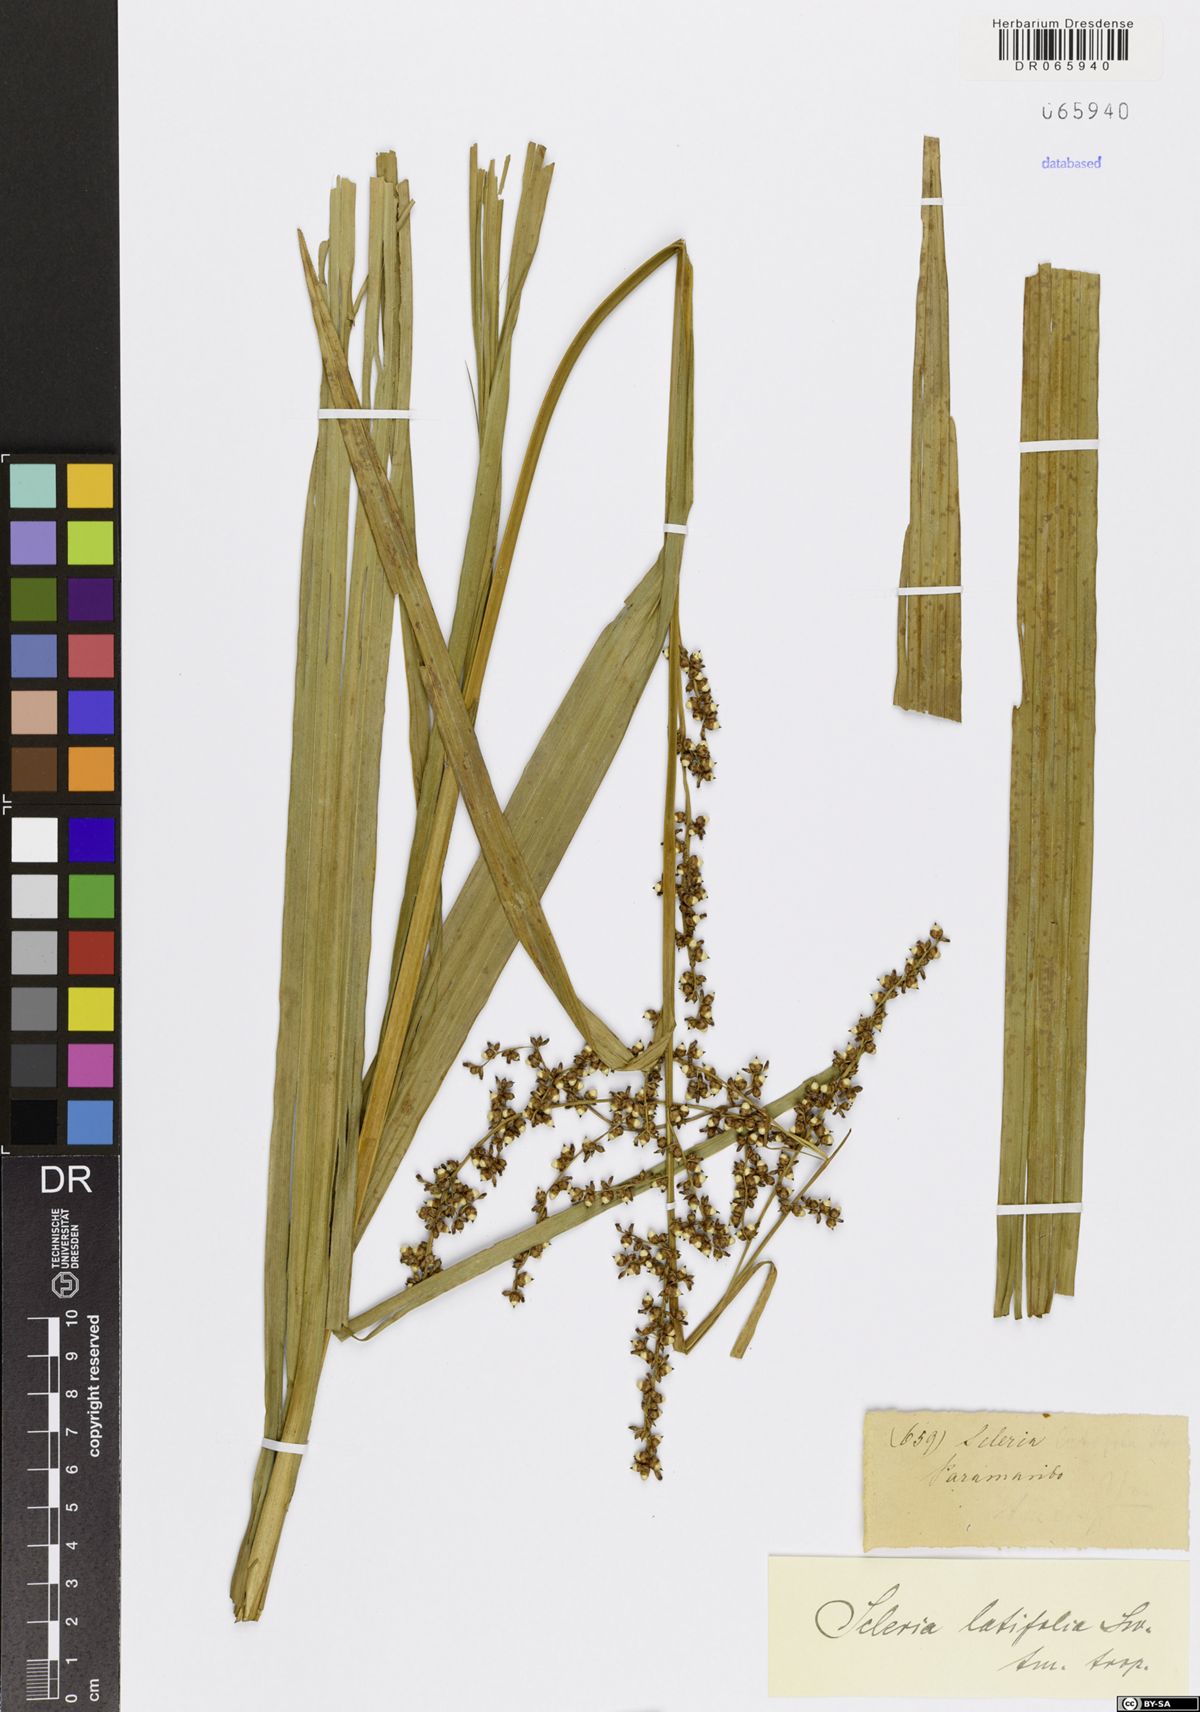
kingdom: Plantae
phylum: Tracheophyta
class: Liliopsida
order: Poales
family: Cyperaceae
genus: Scleria
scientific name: Scleria latifolia
